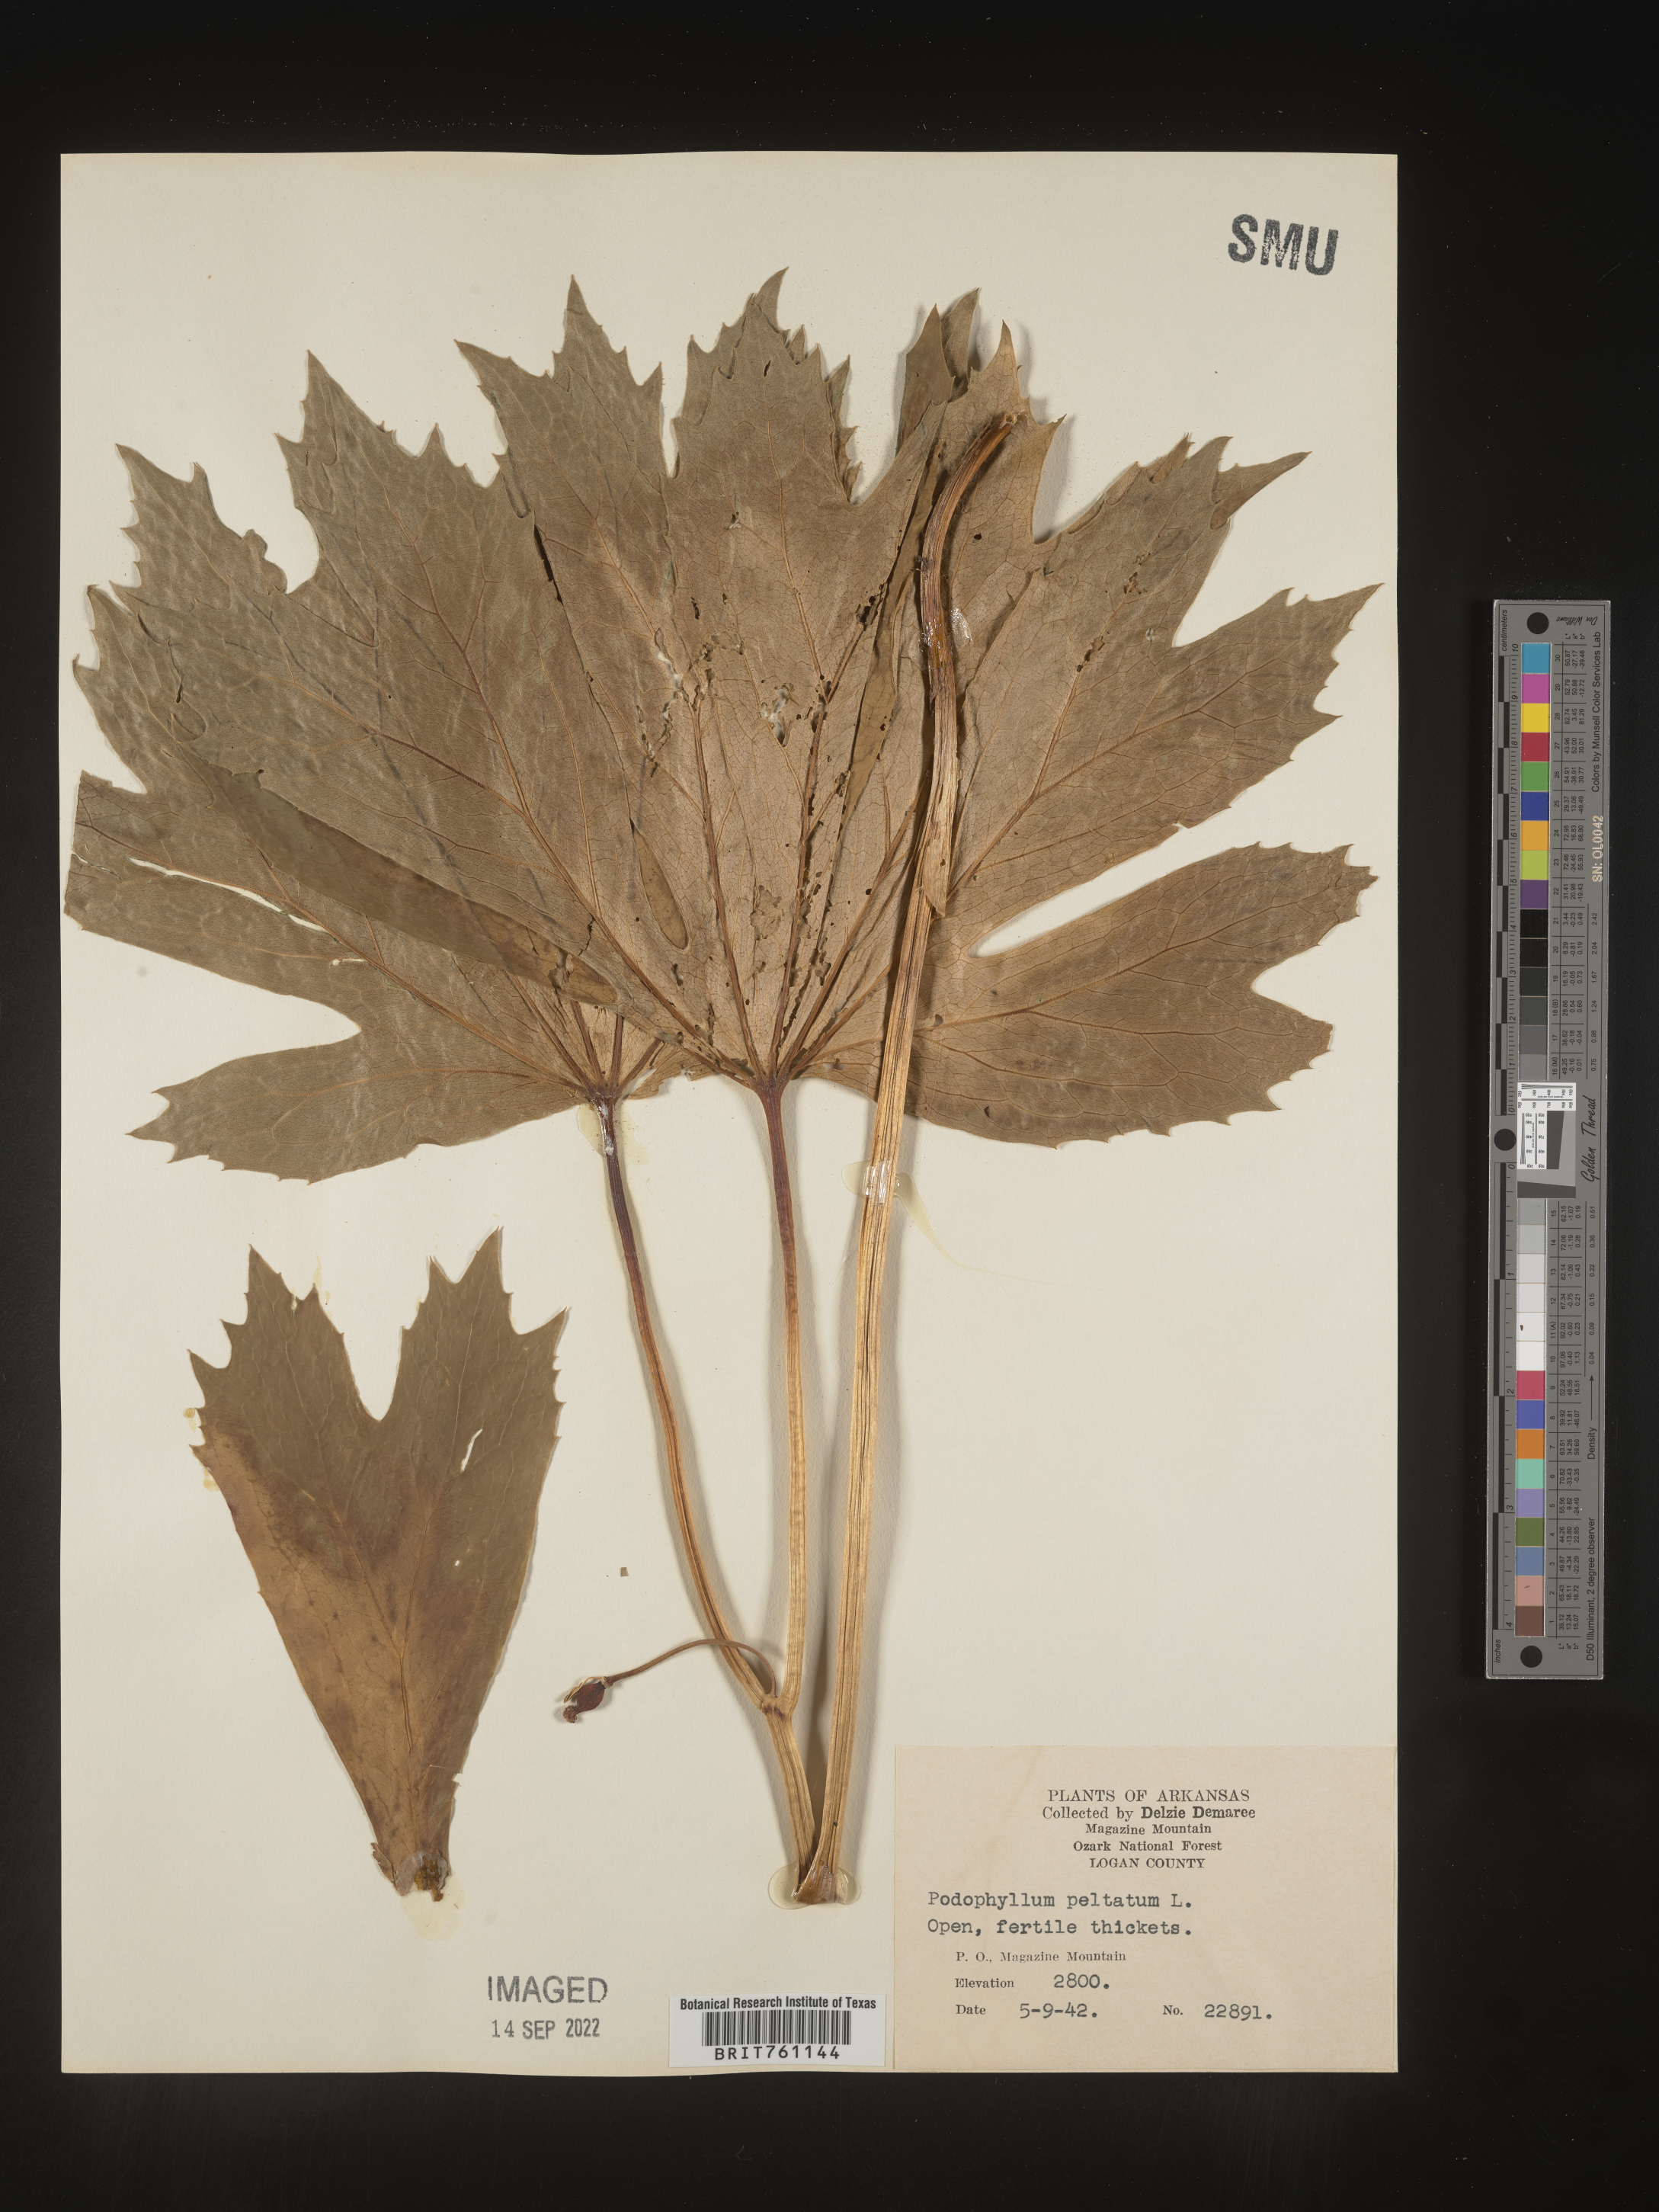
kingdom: Plantae
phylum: Tracheophyta
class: Magnoliopsida
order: Ranunculales
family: Berberidaceae
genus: Podophyllum
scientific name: Podophyllum peltatum
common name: Wild mandrake
